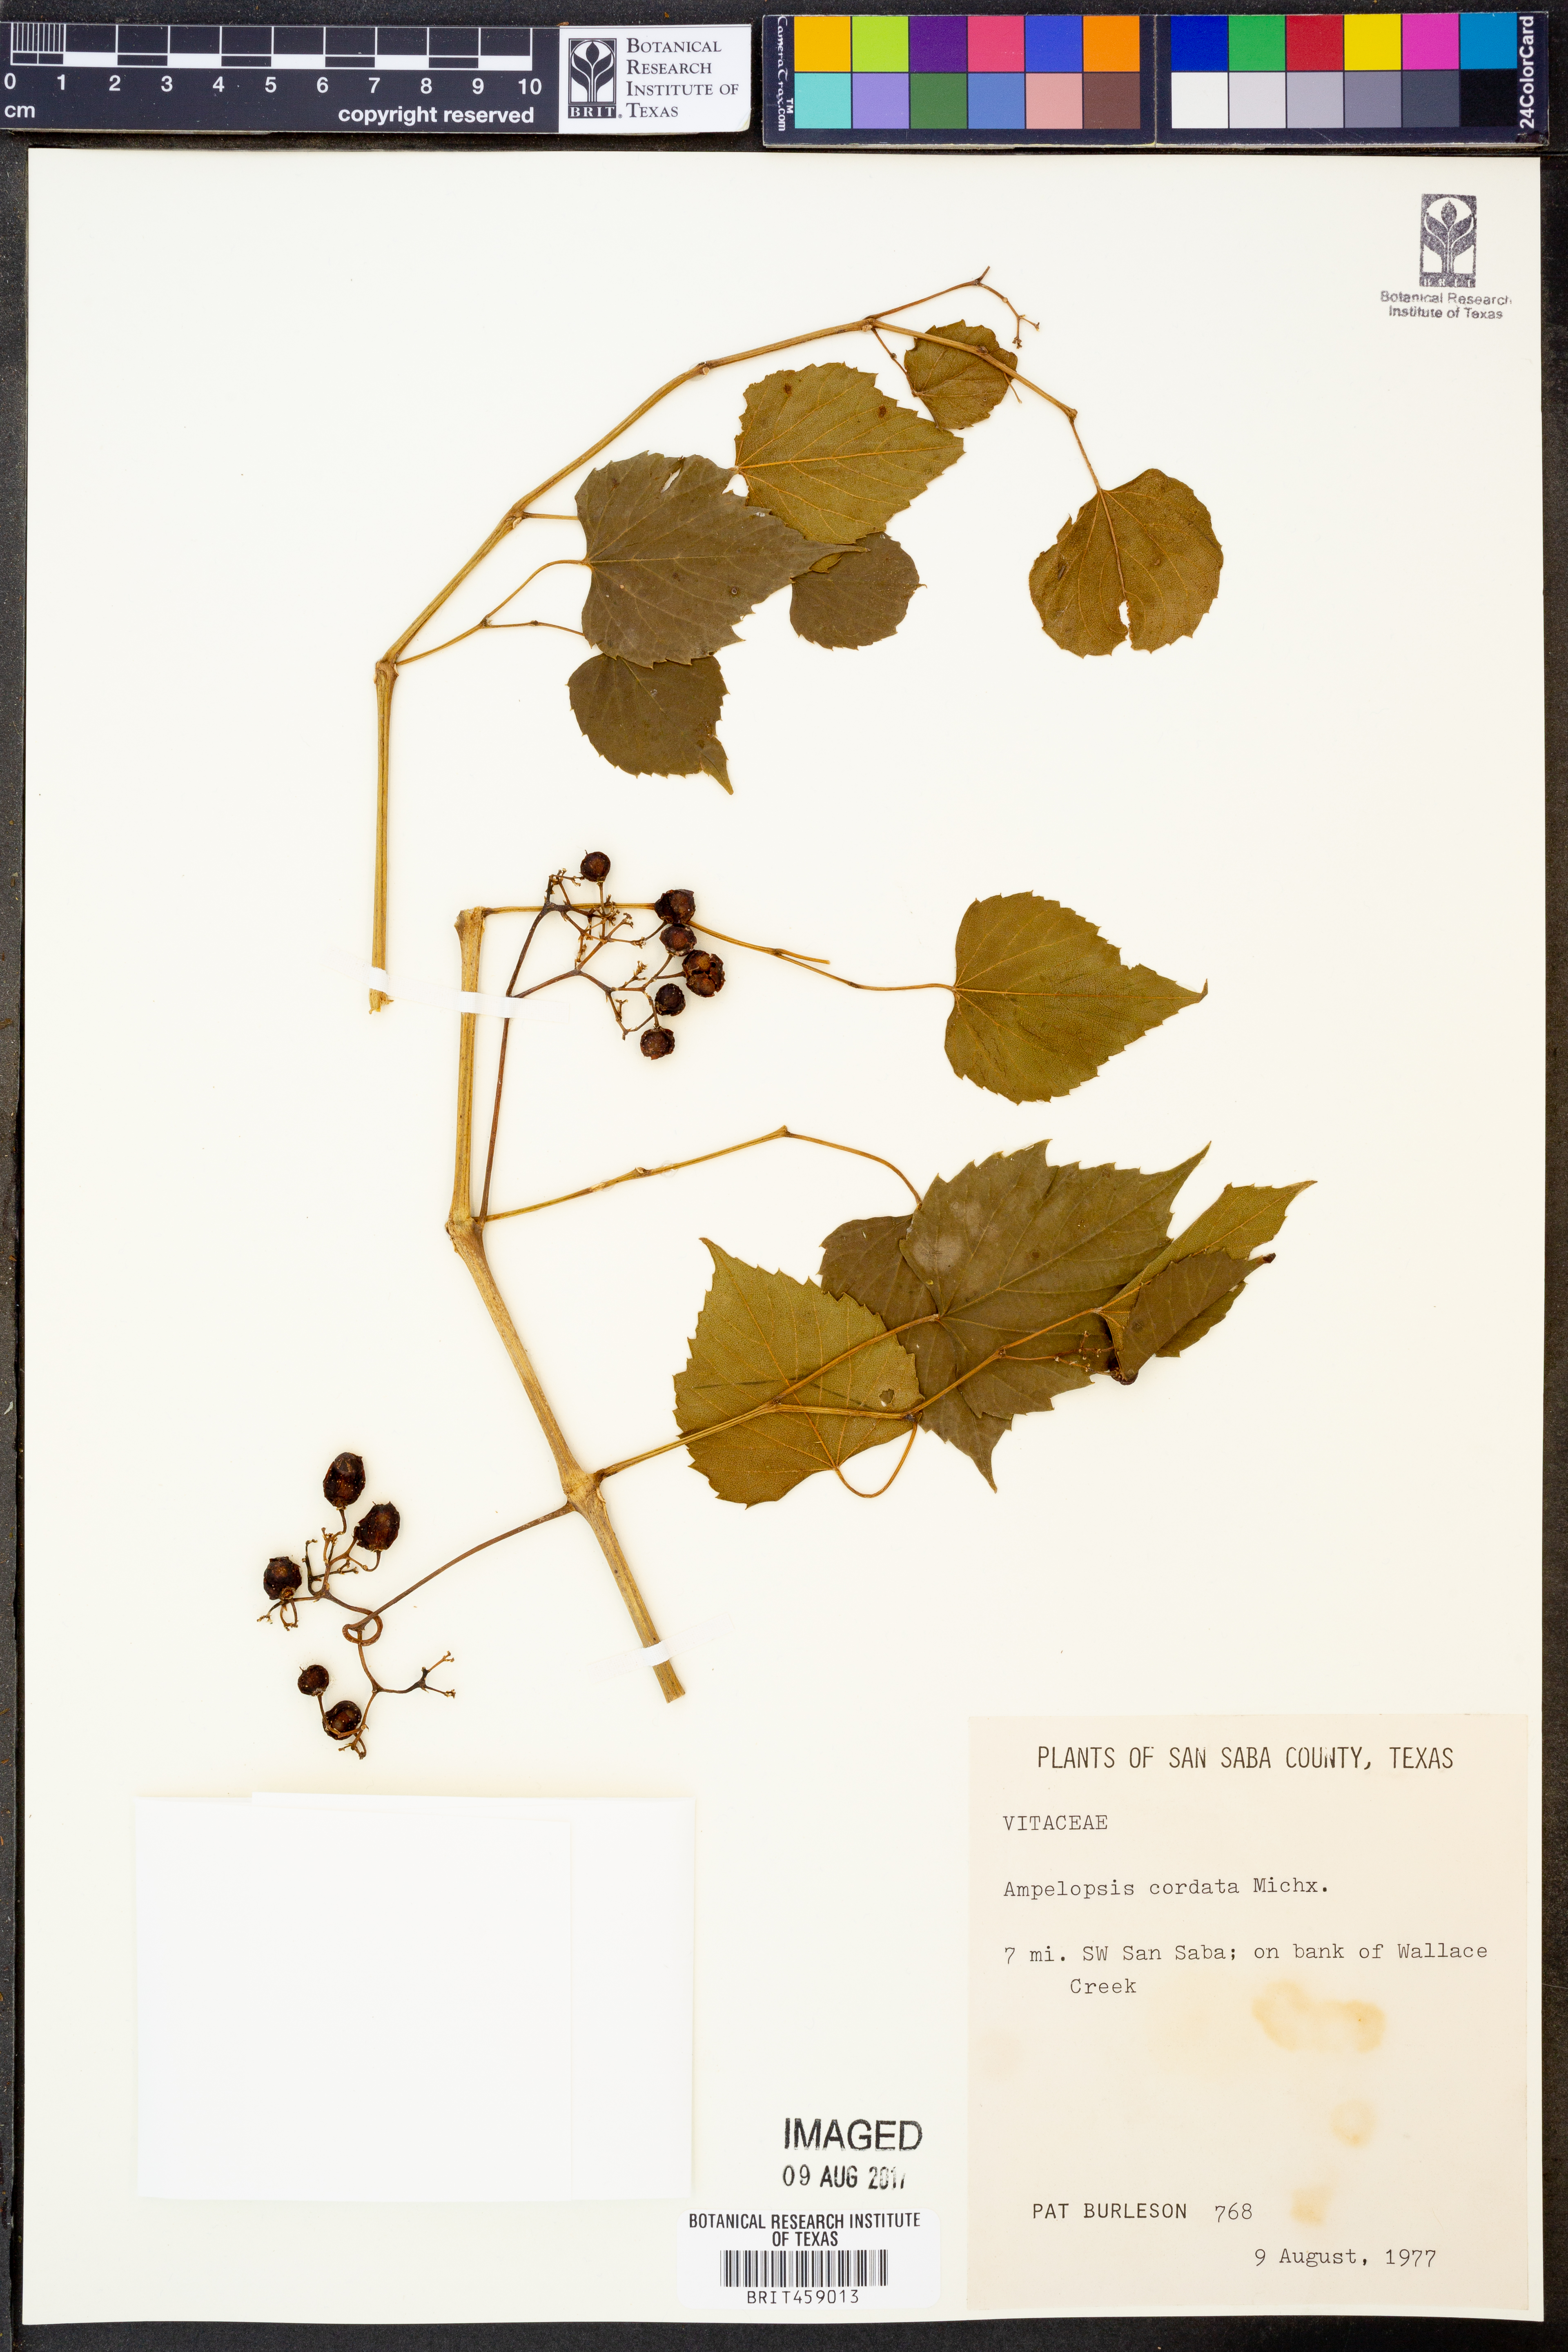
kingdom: Plantae
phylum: Tracheophyta
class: Magnoliopsida
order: Vitales
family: Vitaceae
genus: Ampelopsis
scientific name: Ampelopsis cordata
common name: Heart-leaf ampelopsis
